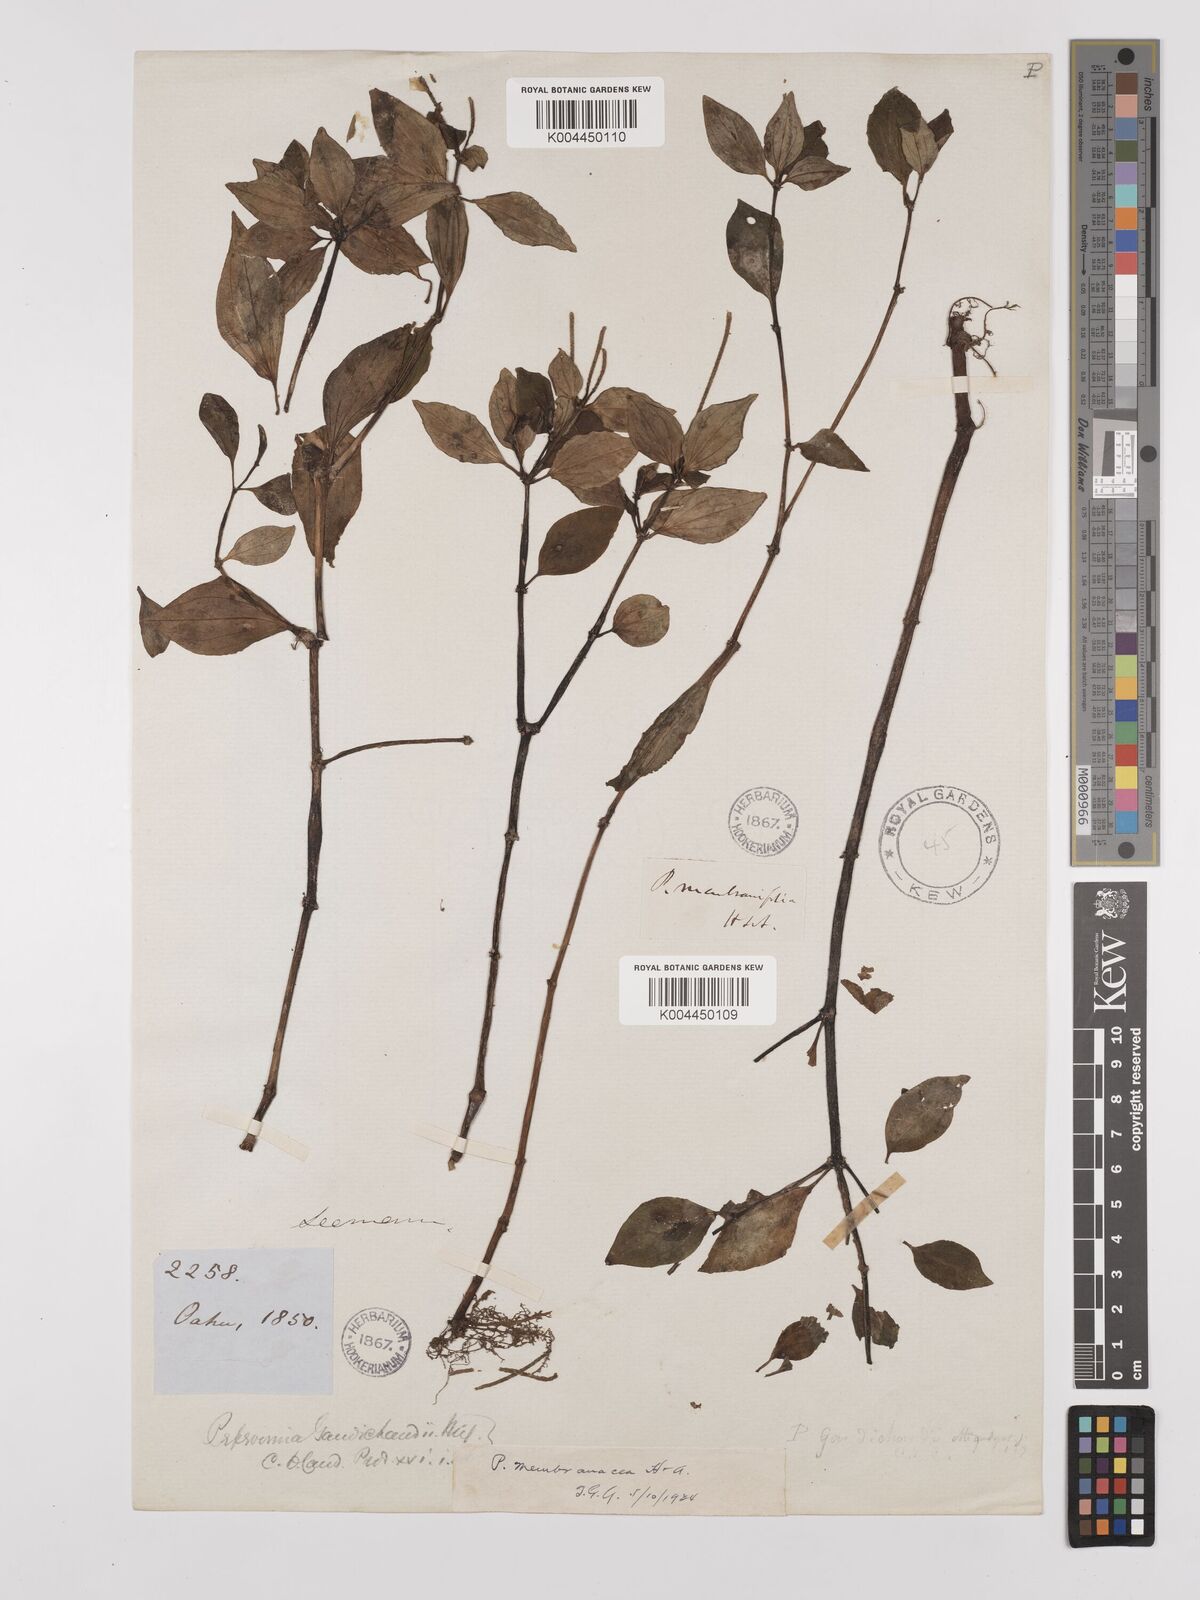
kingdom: Plantae
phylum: Tracheophyta
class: Magnoliopsida
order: Piperales
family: Piperaceae
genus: Peperomia
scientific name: Peperomia membranacea
